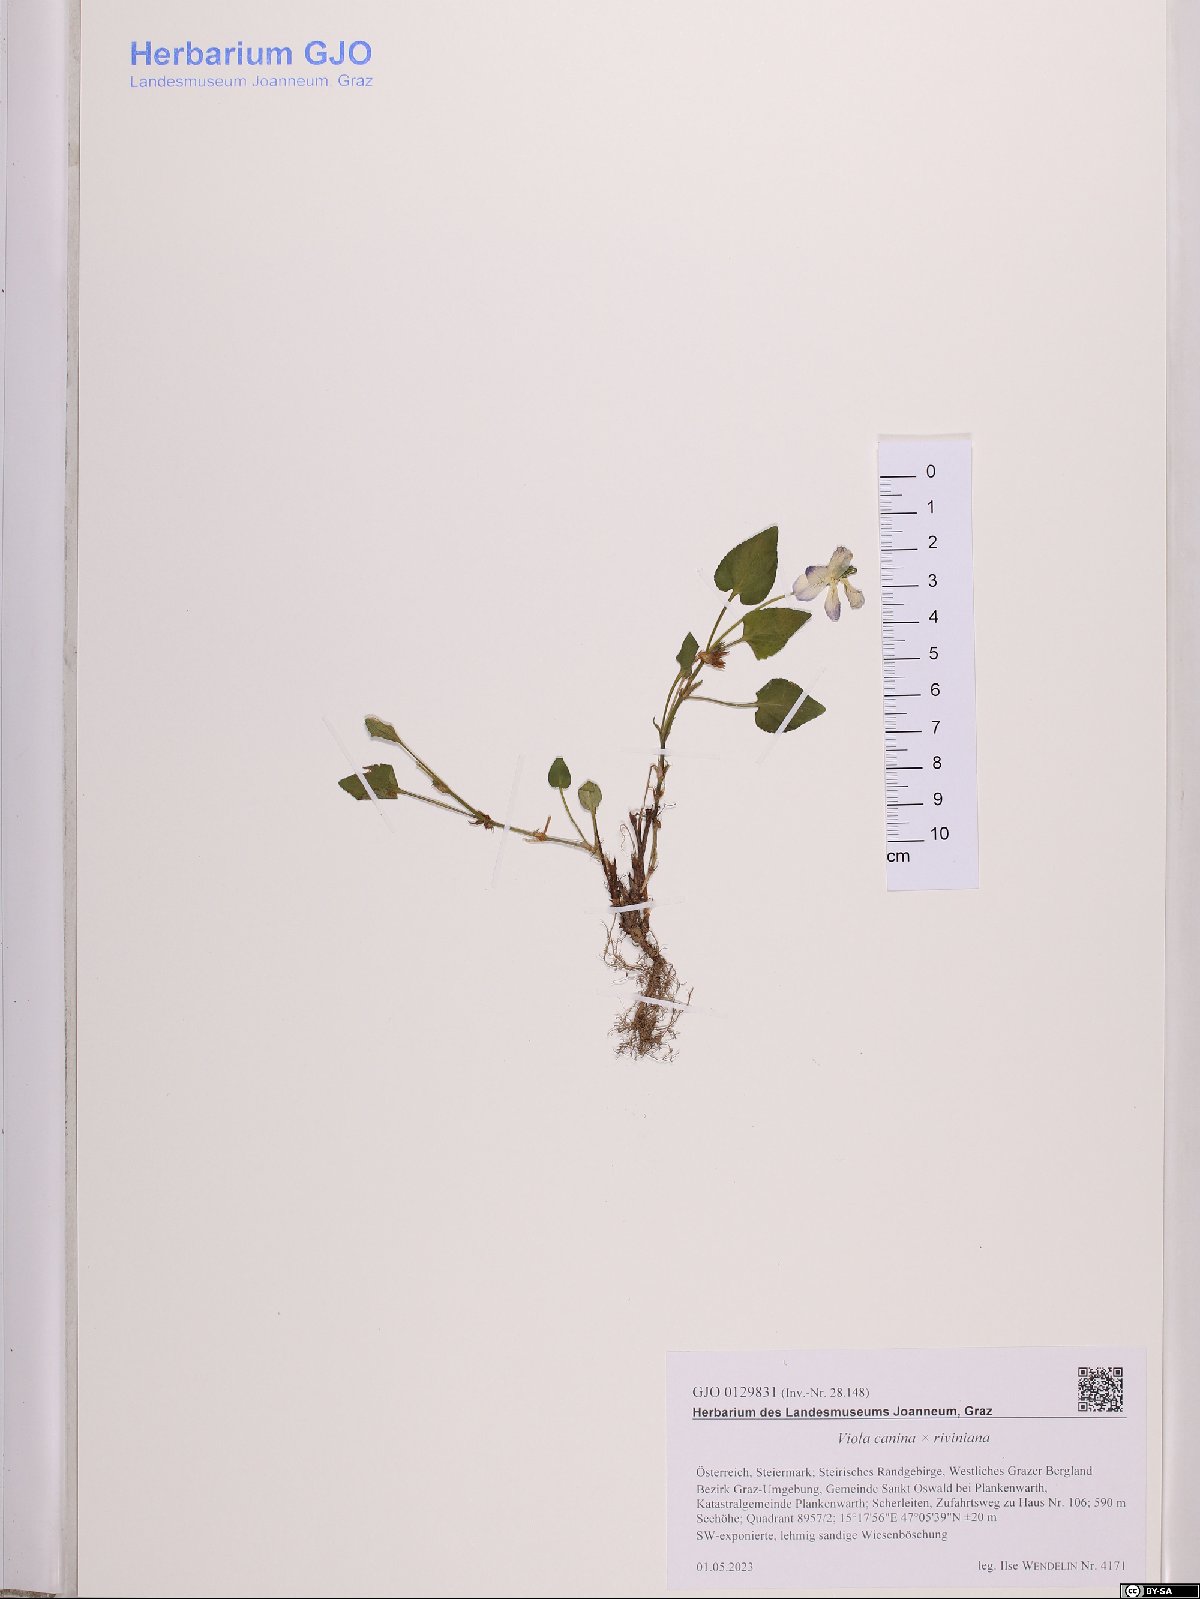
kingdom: Plantae
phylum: Tracheophyta
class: Magnoliopsida
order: Malpighiales
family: Violaceae
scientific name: Violaceae
